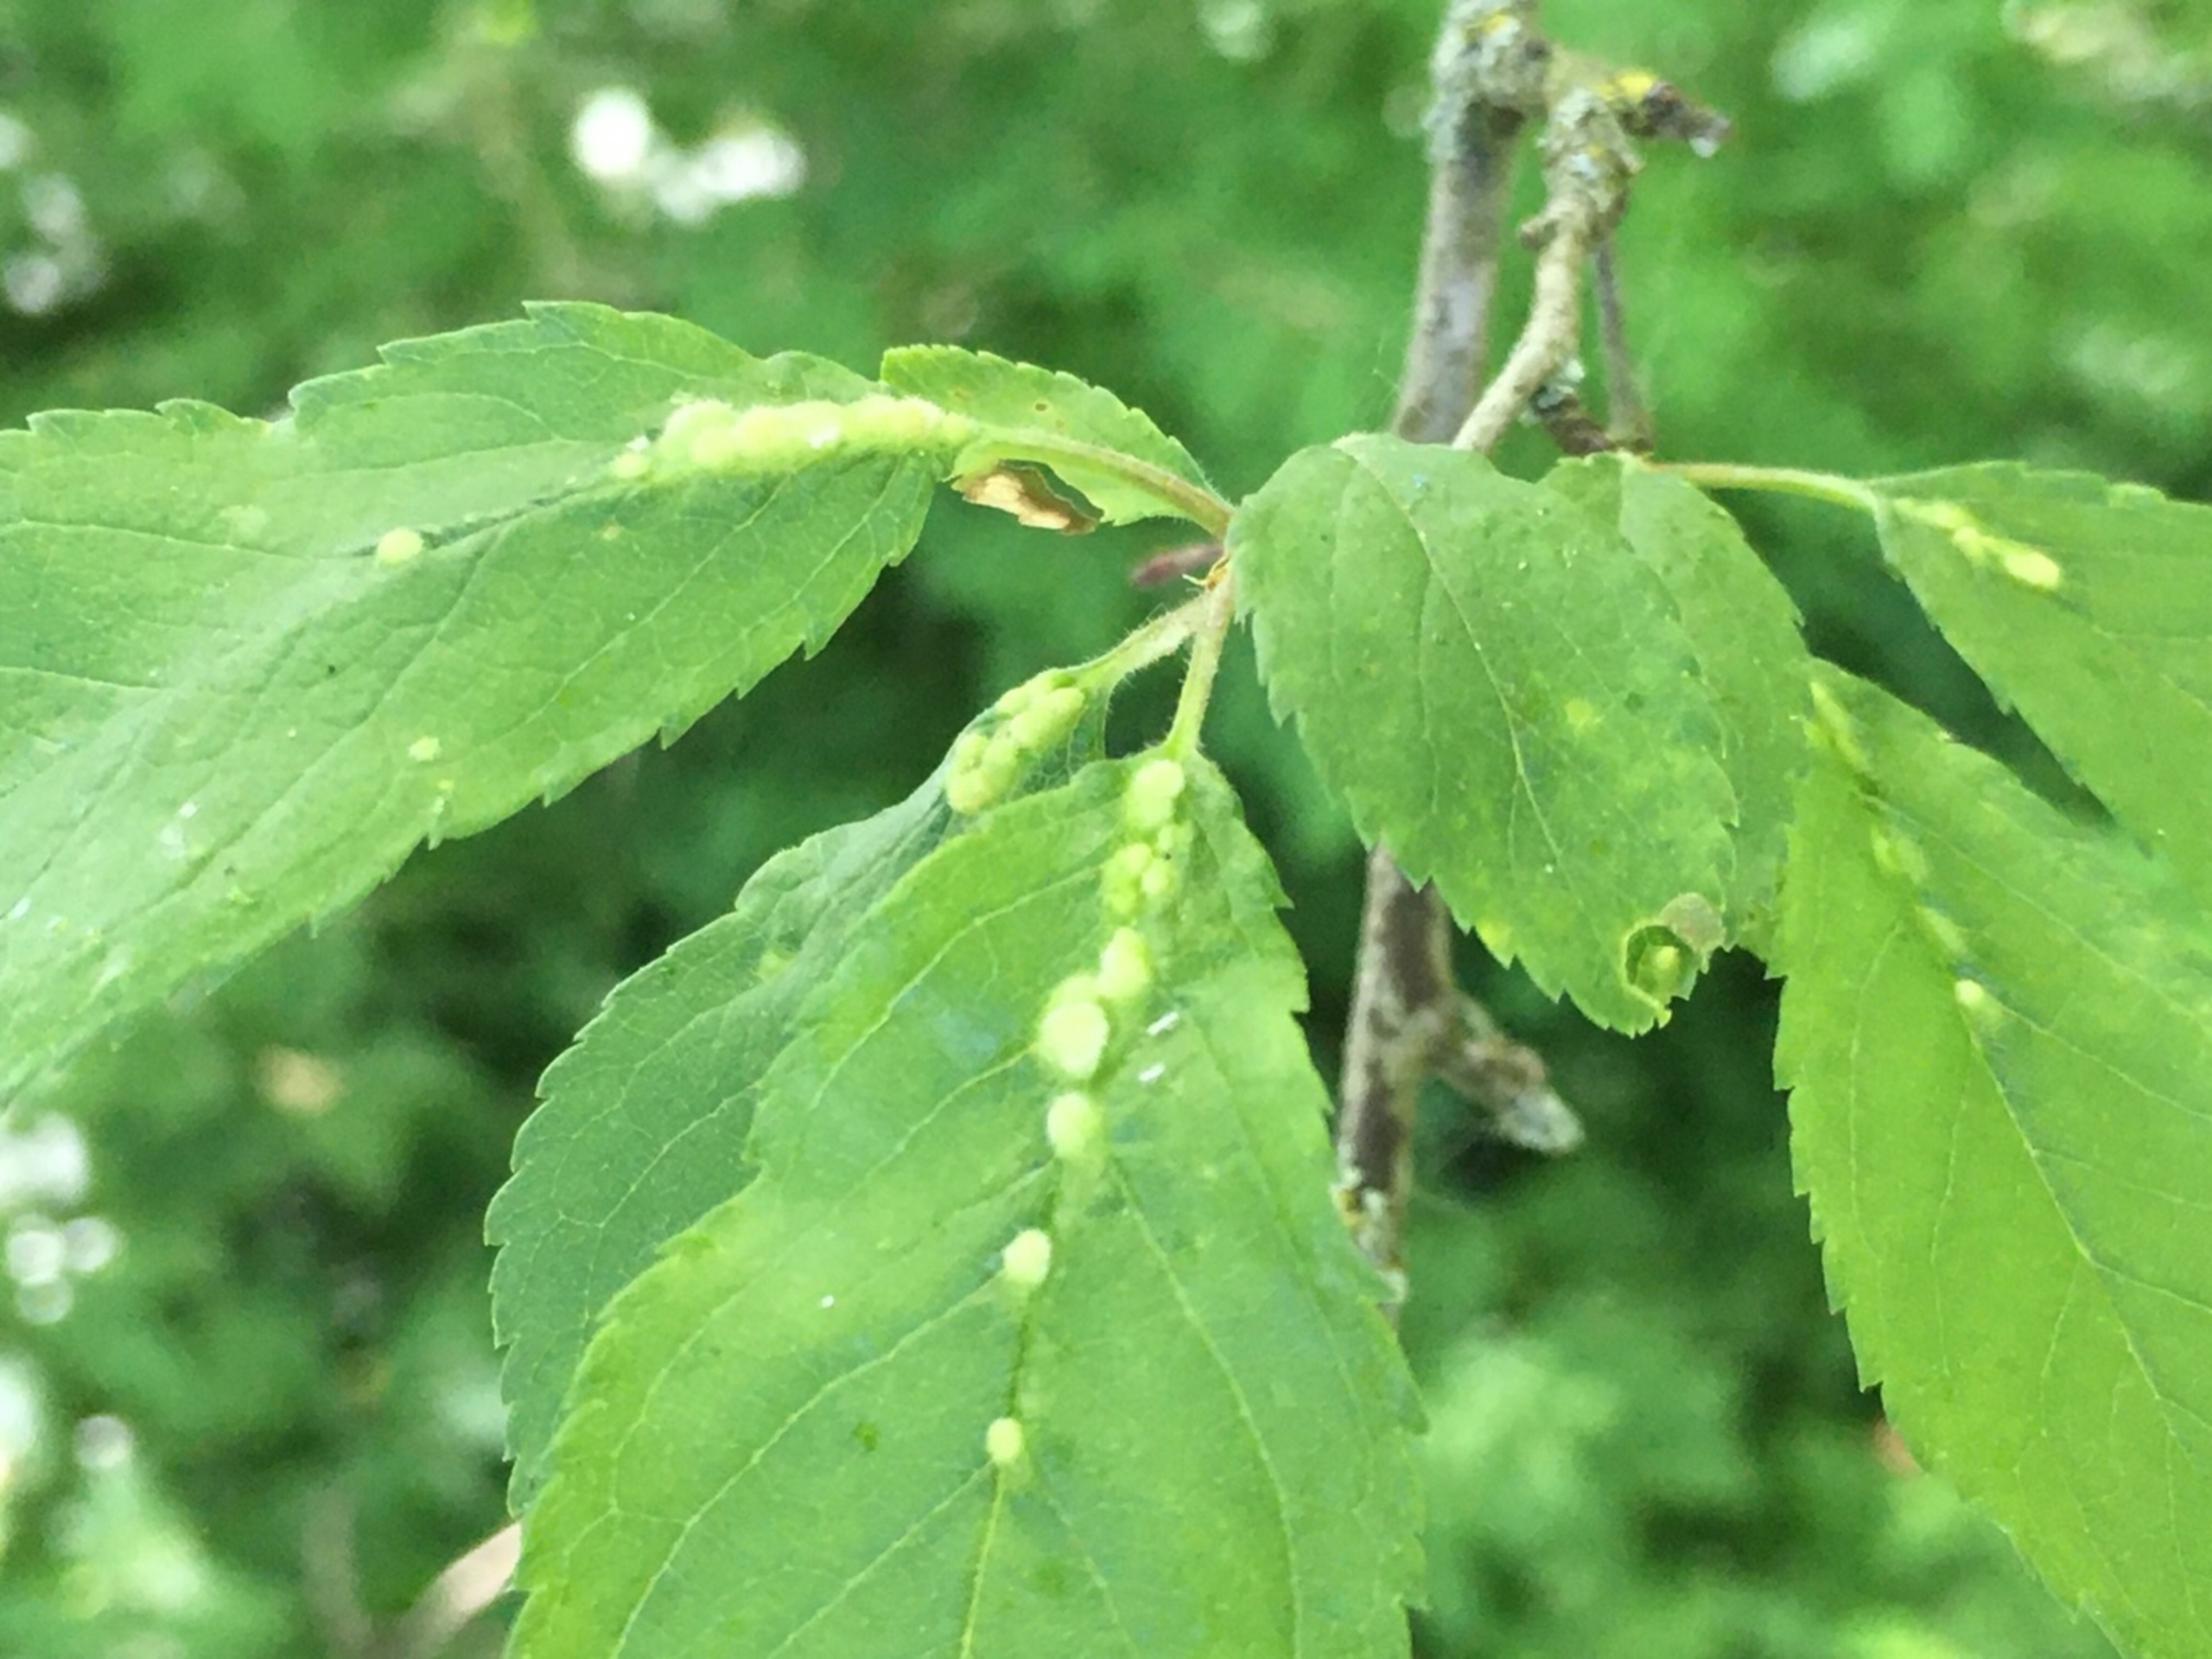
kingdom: Animalia
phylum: Arthropoda
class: Arachnida
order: Trombidiformes
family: Eriophyidae
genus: Eriophyes
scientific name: Eriophyes homophyllus
